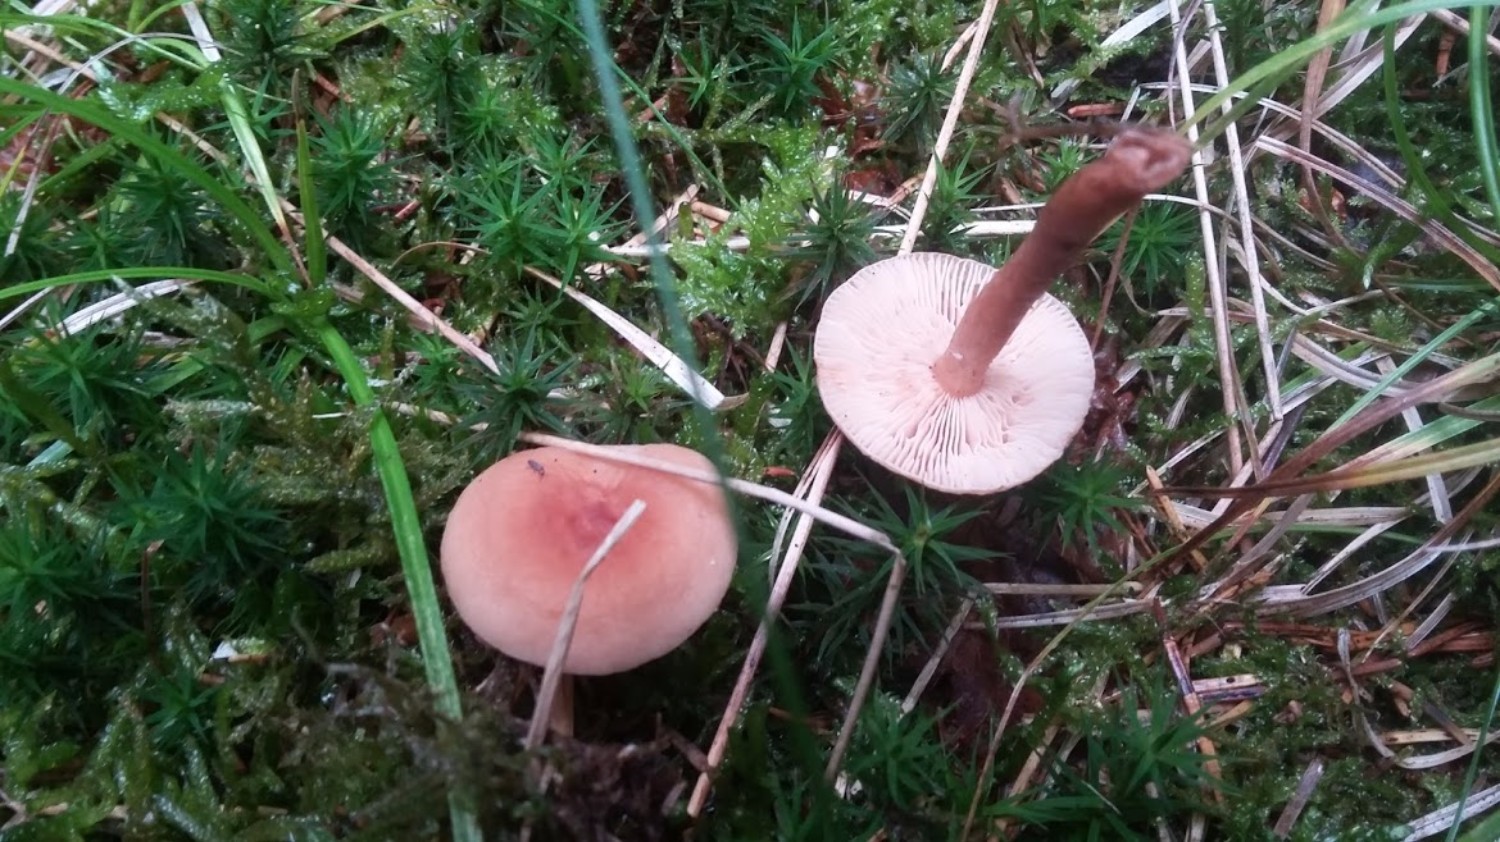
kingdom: Fungi
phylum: Basidiomycota
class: Agaricomycetes
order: Russulales
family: Russulaceae
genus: Lactarius
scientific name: Lactarius tabidus
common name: rynket mælkehat
